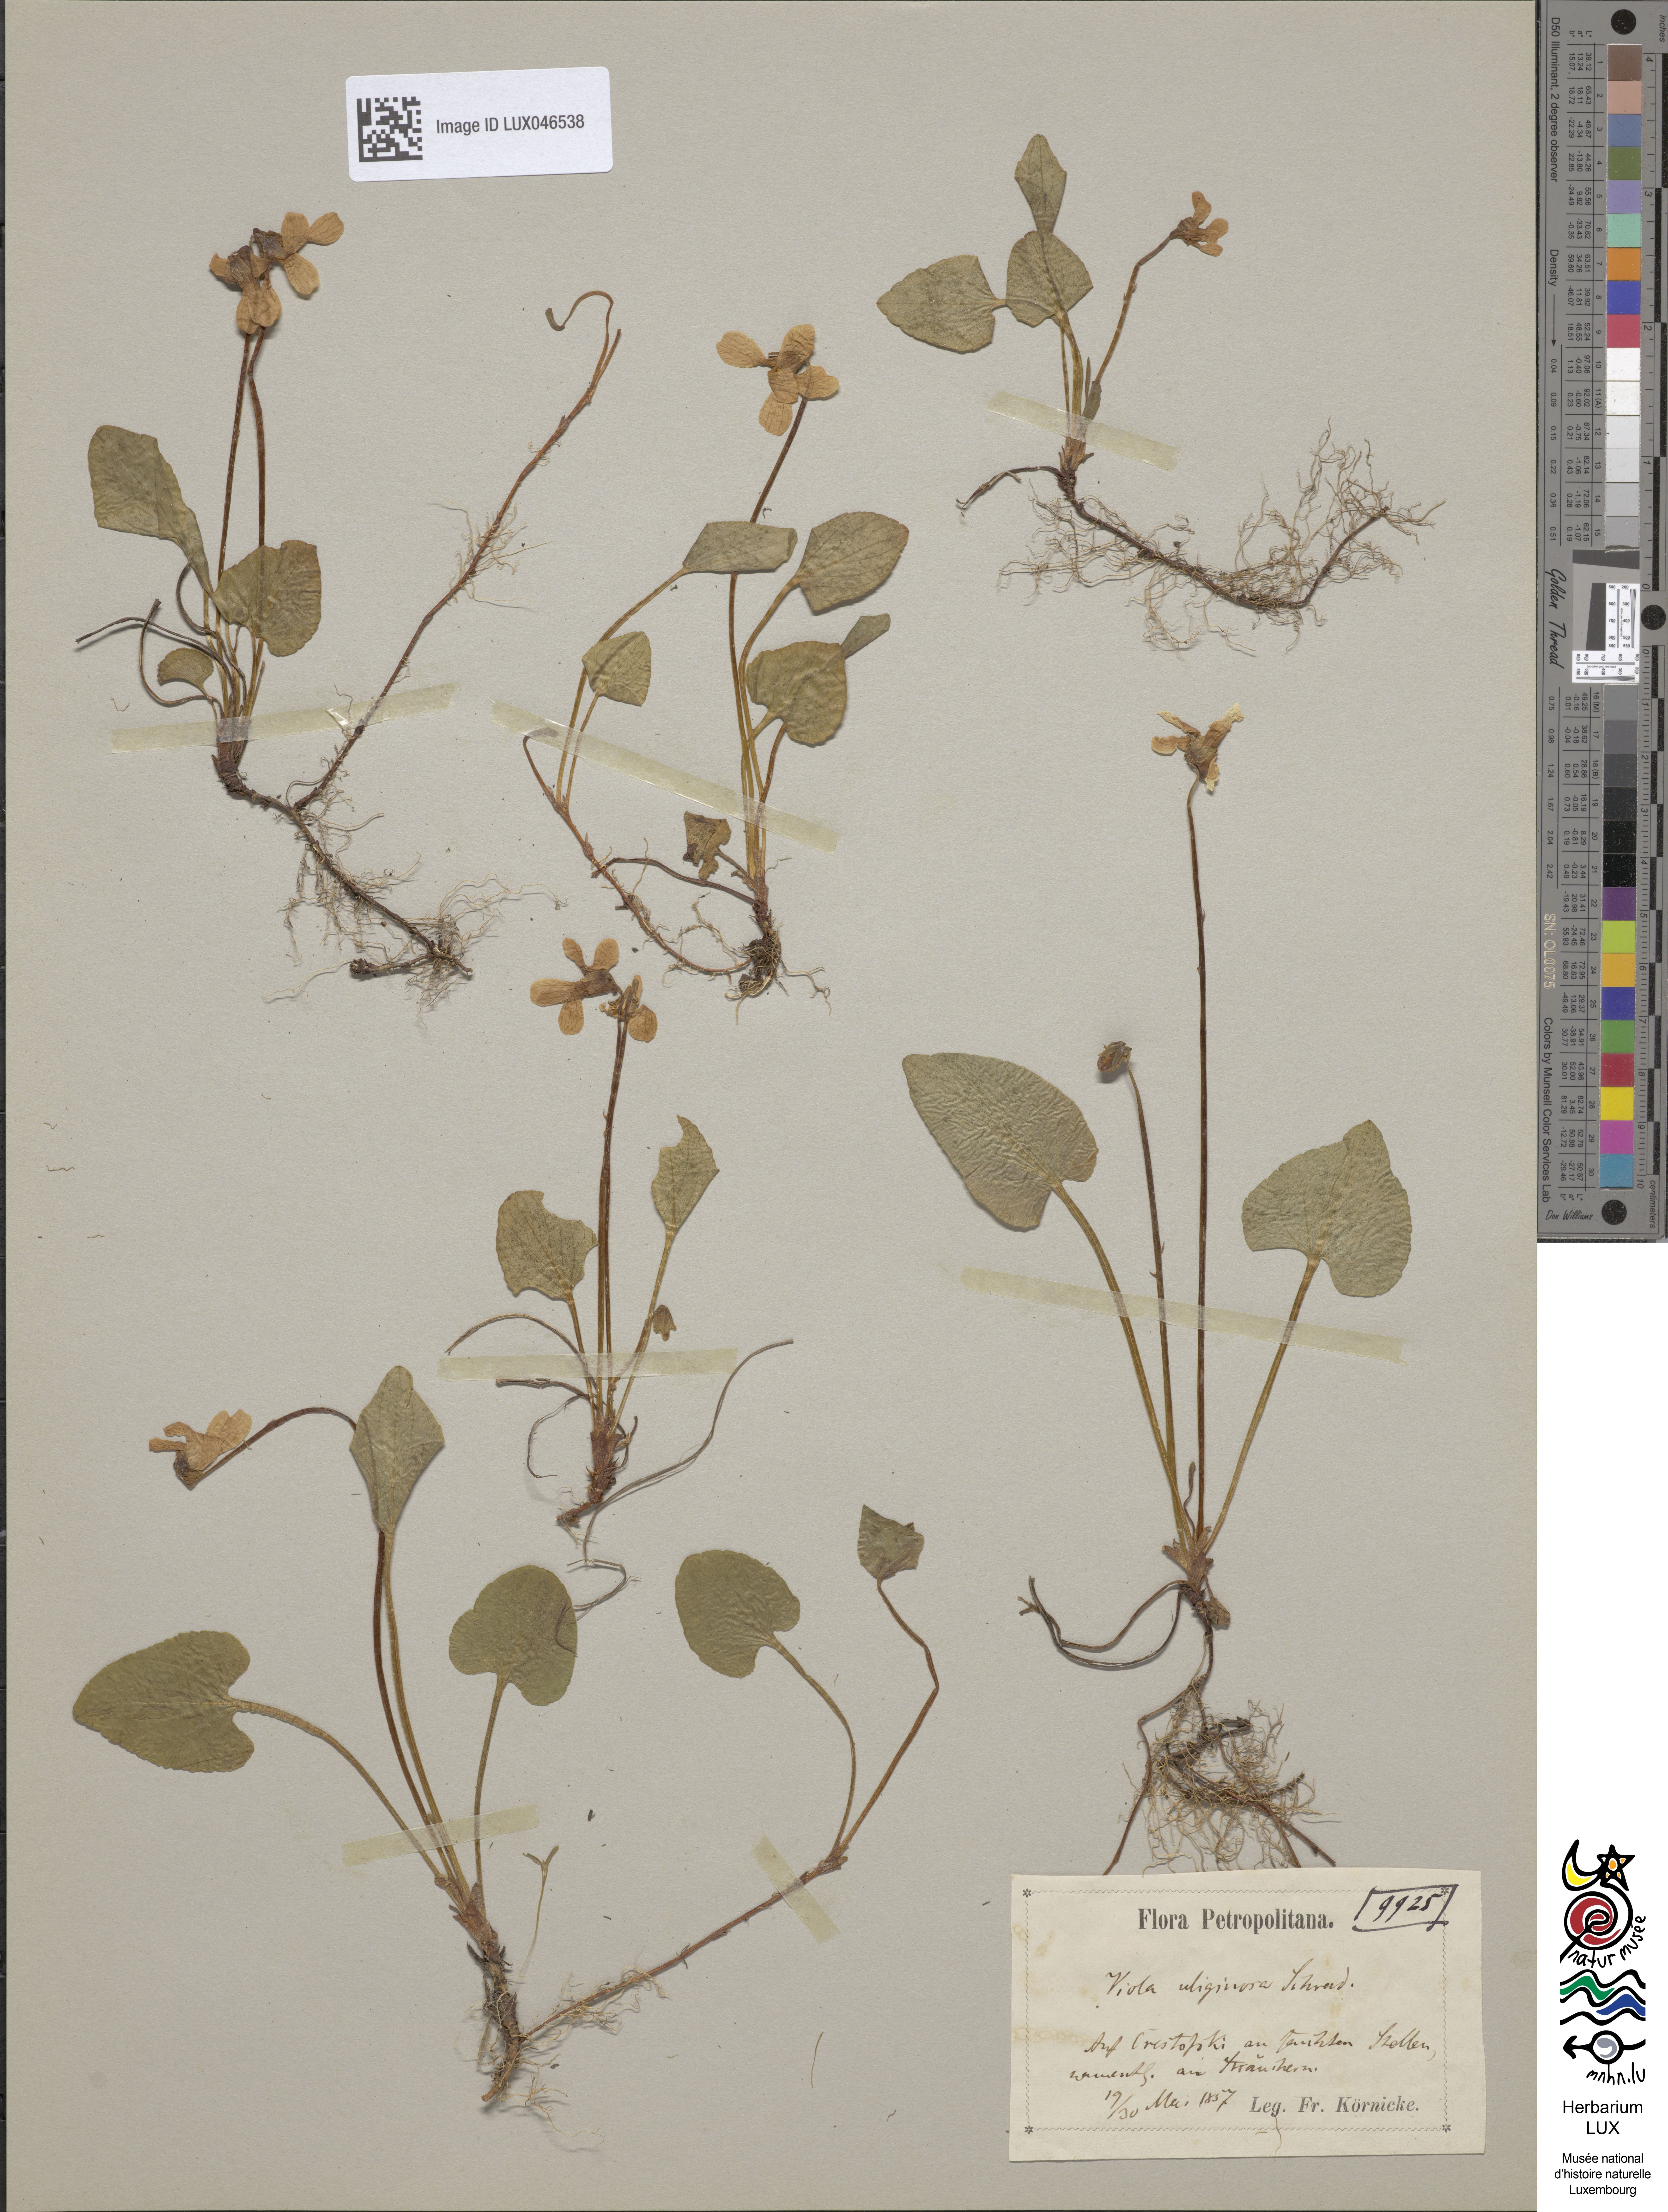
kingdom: Plantae
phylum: Tracheophyta
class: Magnoliopsida
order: Malpighiales
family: Violaceae
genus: Viola
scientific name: Viola uliginosa
